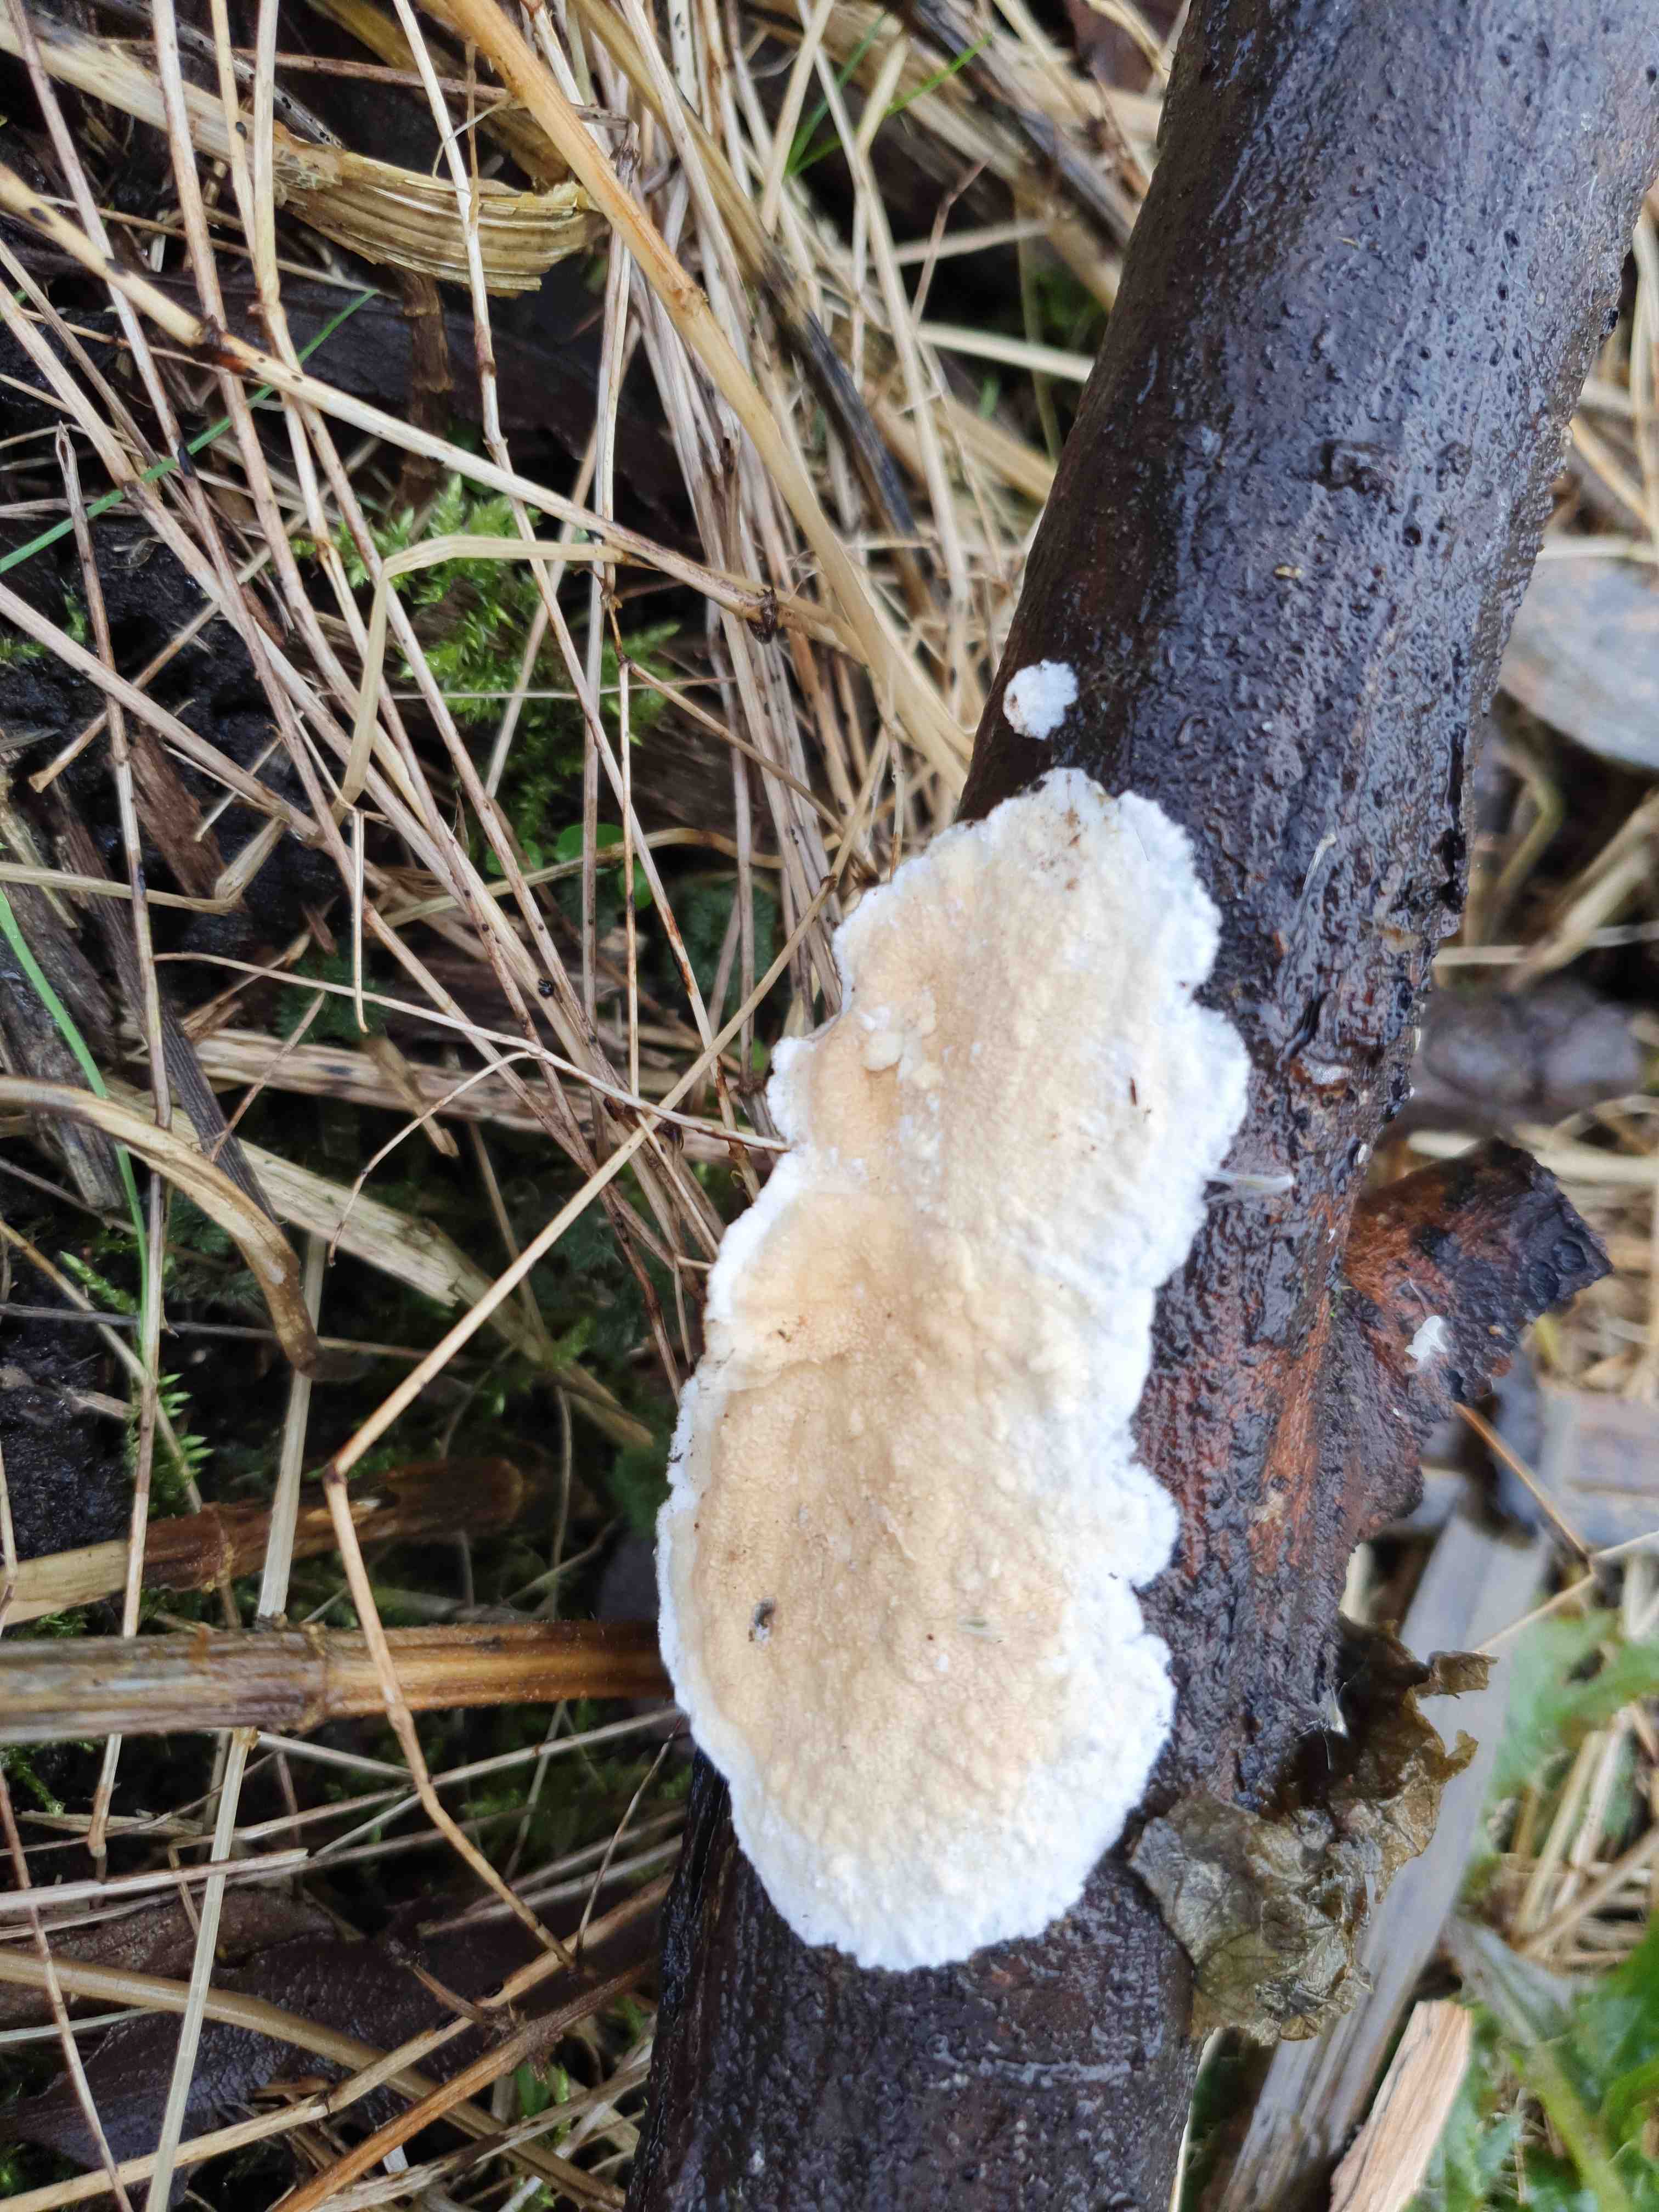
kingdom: Fungi
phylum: Basidiomycota
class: Agaricomycetes
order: Polyporales
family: Irpicaceae
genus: Byssomerulius
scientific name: Byssomerulius corium
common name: læder-åresvamp
